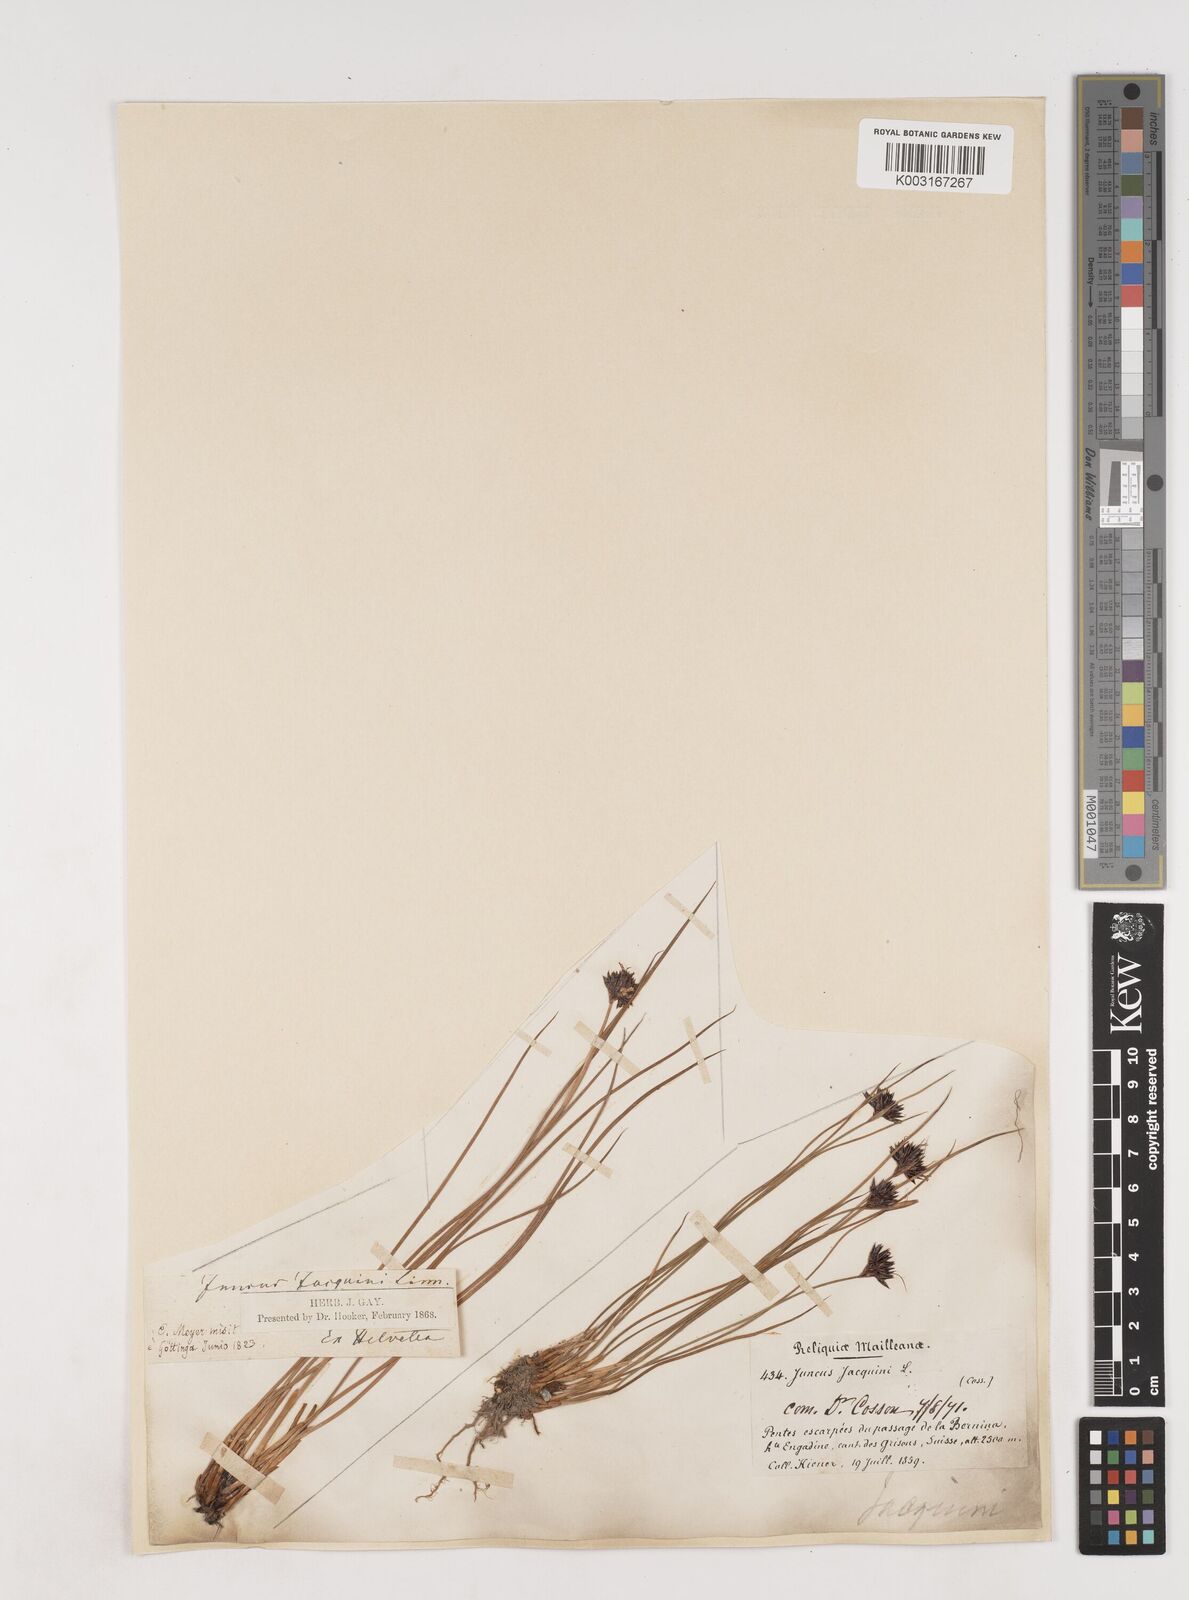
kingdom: Plantae
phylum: Tracheophyta
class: Liliopsida
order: Poales
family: Juncaceae
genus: Juncus
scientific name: Juncus jacquinii
